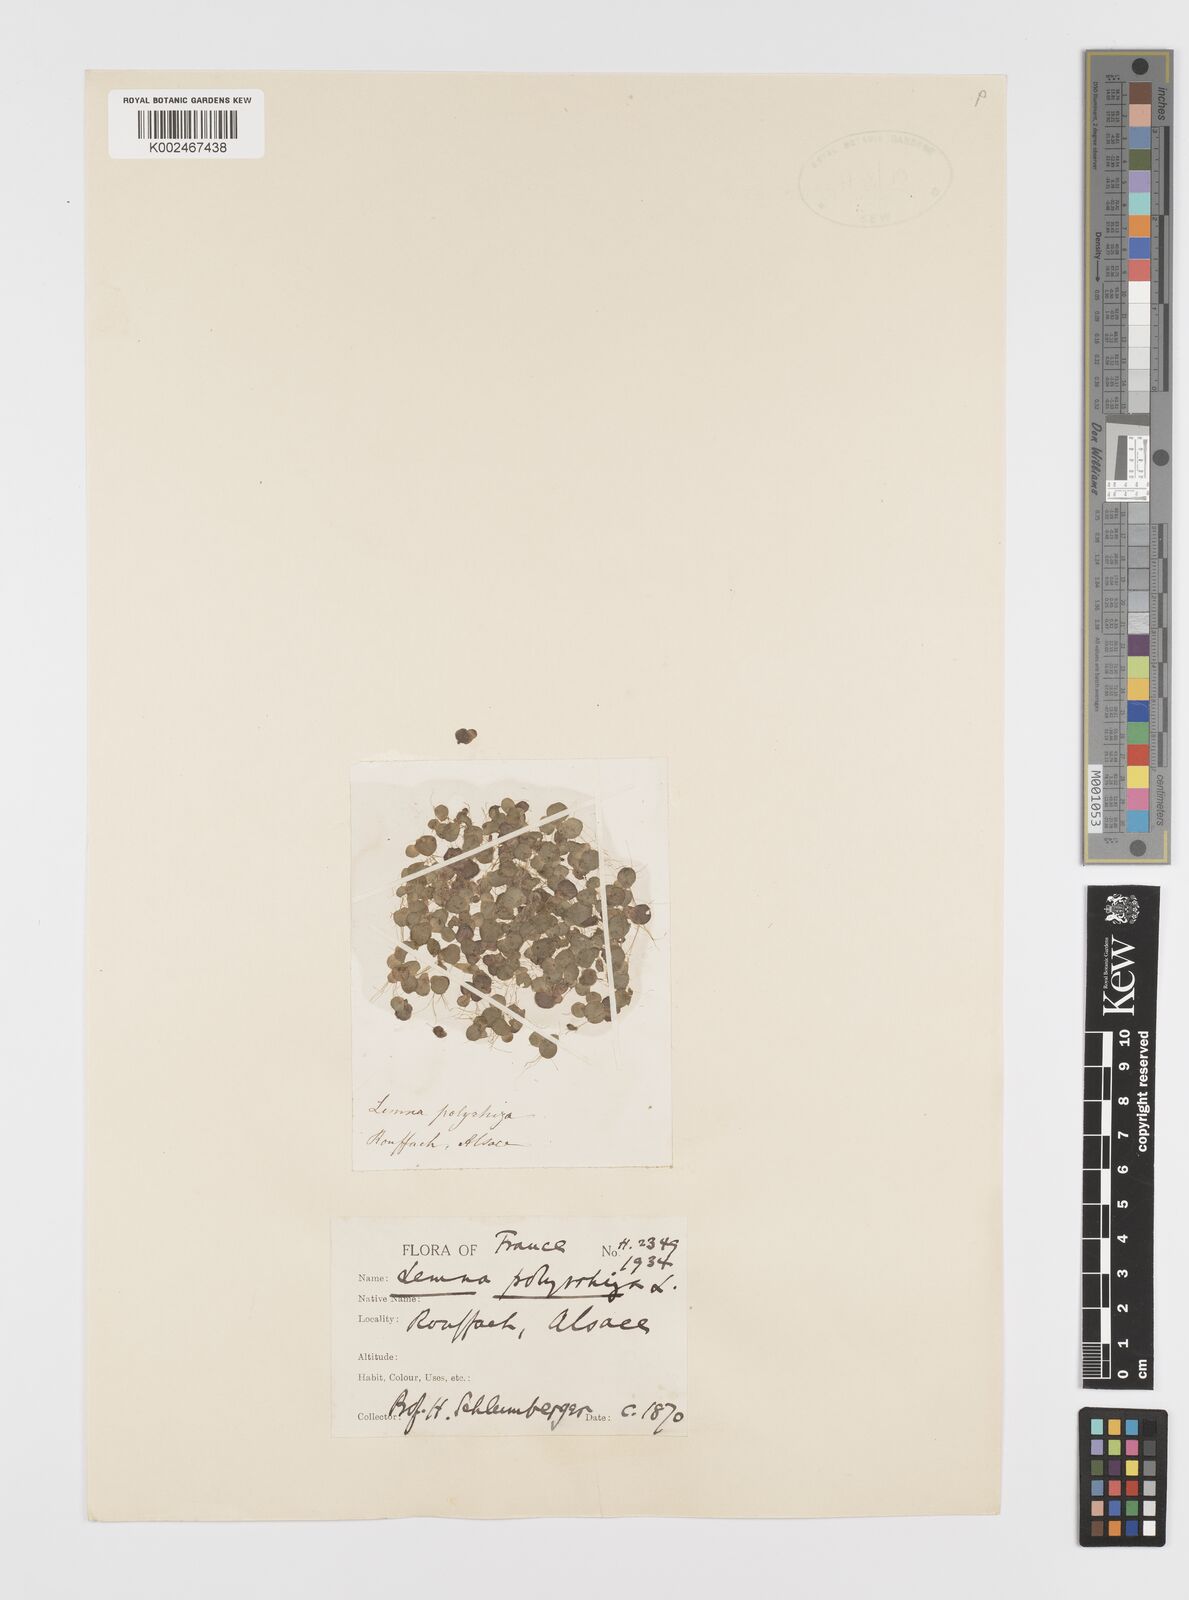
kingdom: Plantae
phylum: Tracheophyta
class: Liliopsida
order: Alismatales
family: Araceae
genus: Spirodela
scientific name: Spirodela polyrhiza
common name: Great duckweed
